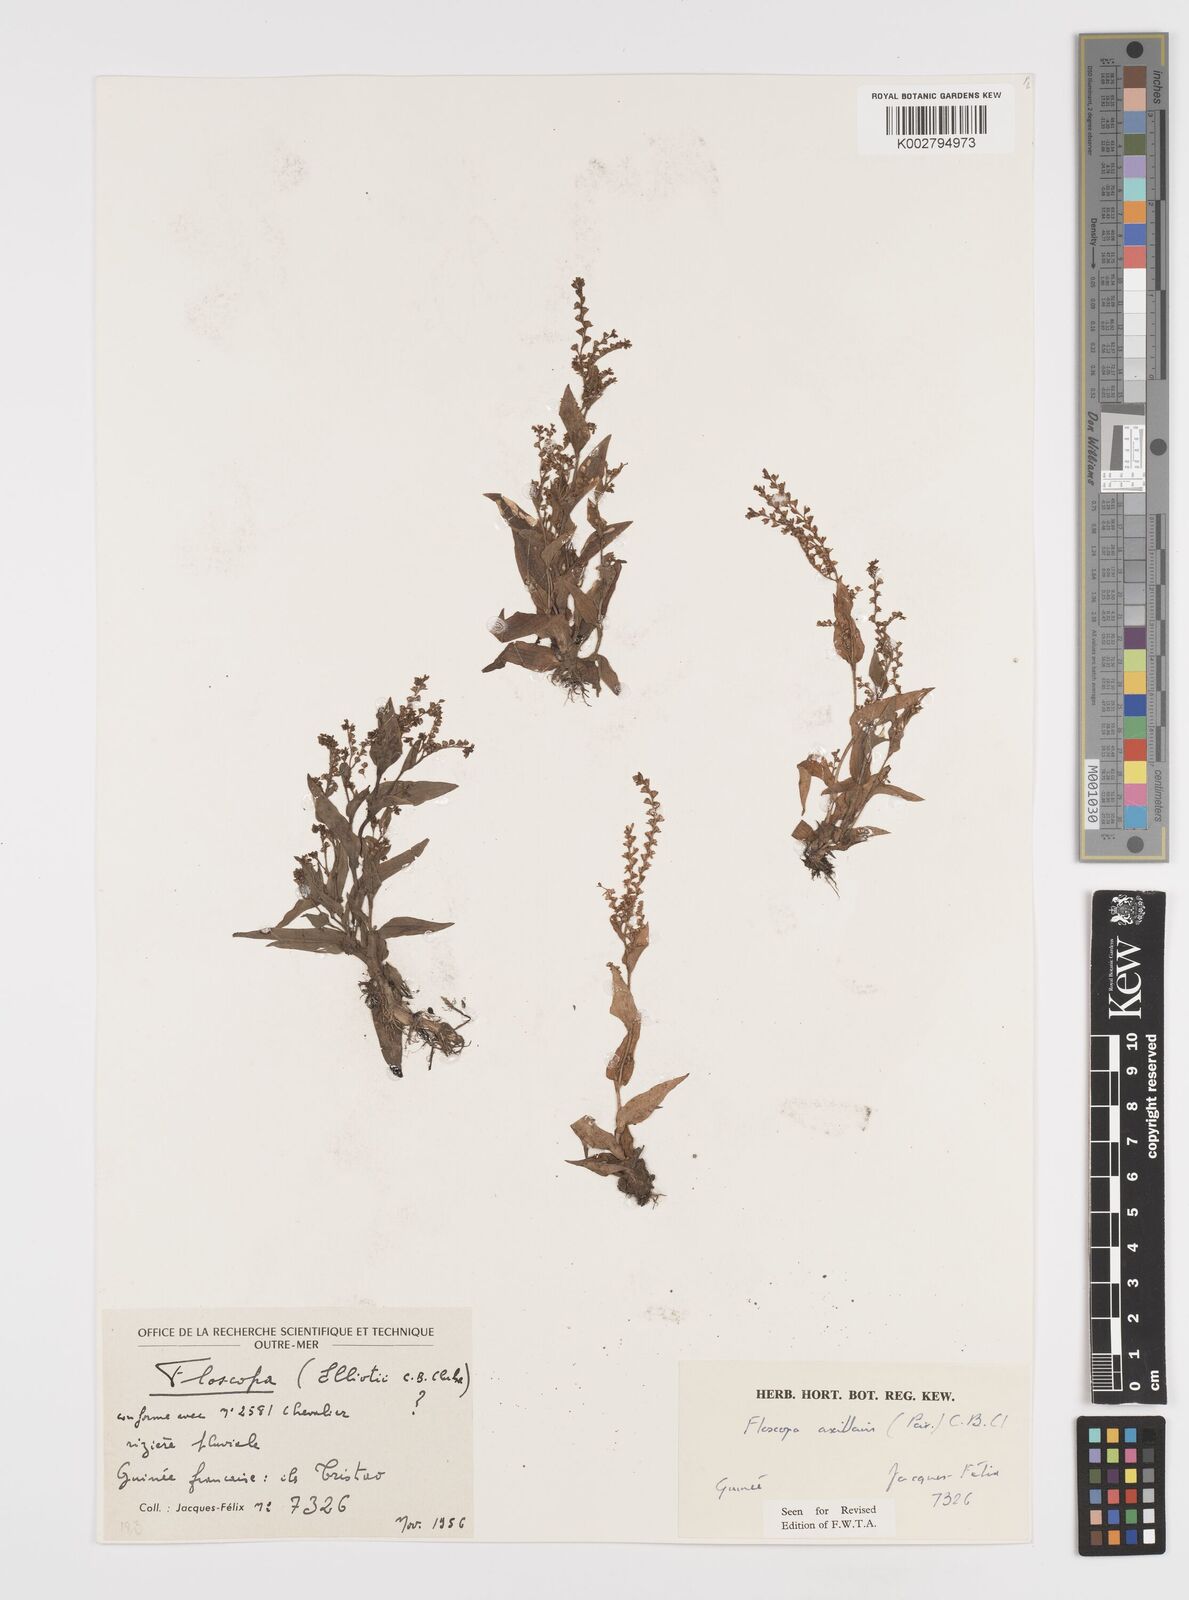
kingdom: Plantae
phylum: Tracheophyta
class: Liliopsida
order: Commelinales
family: Commelinaceae
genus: Floscopa
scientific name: Floscopa axillaris
